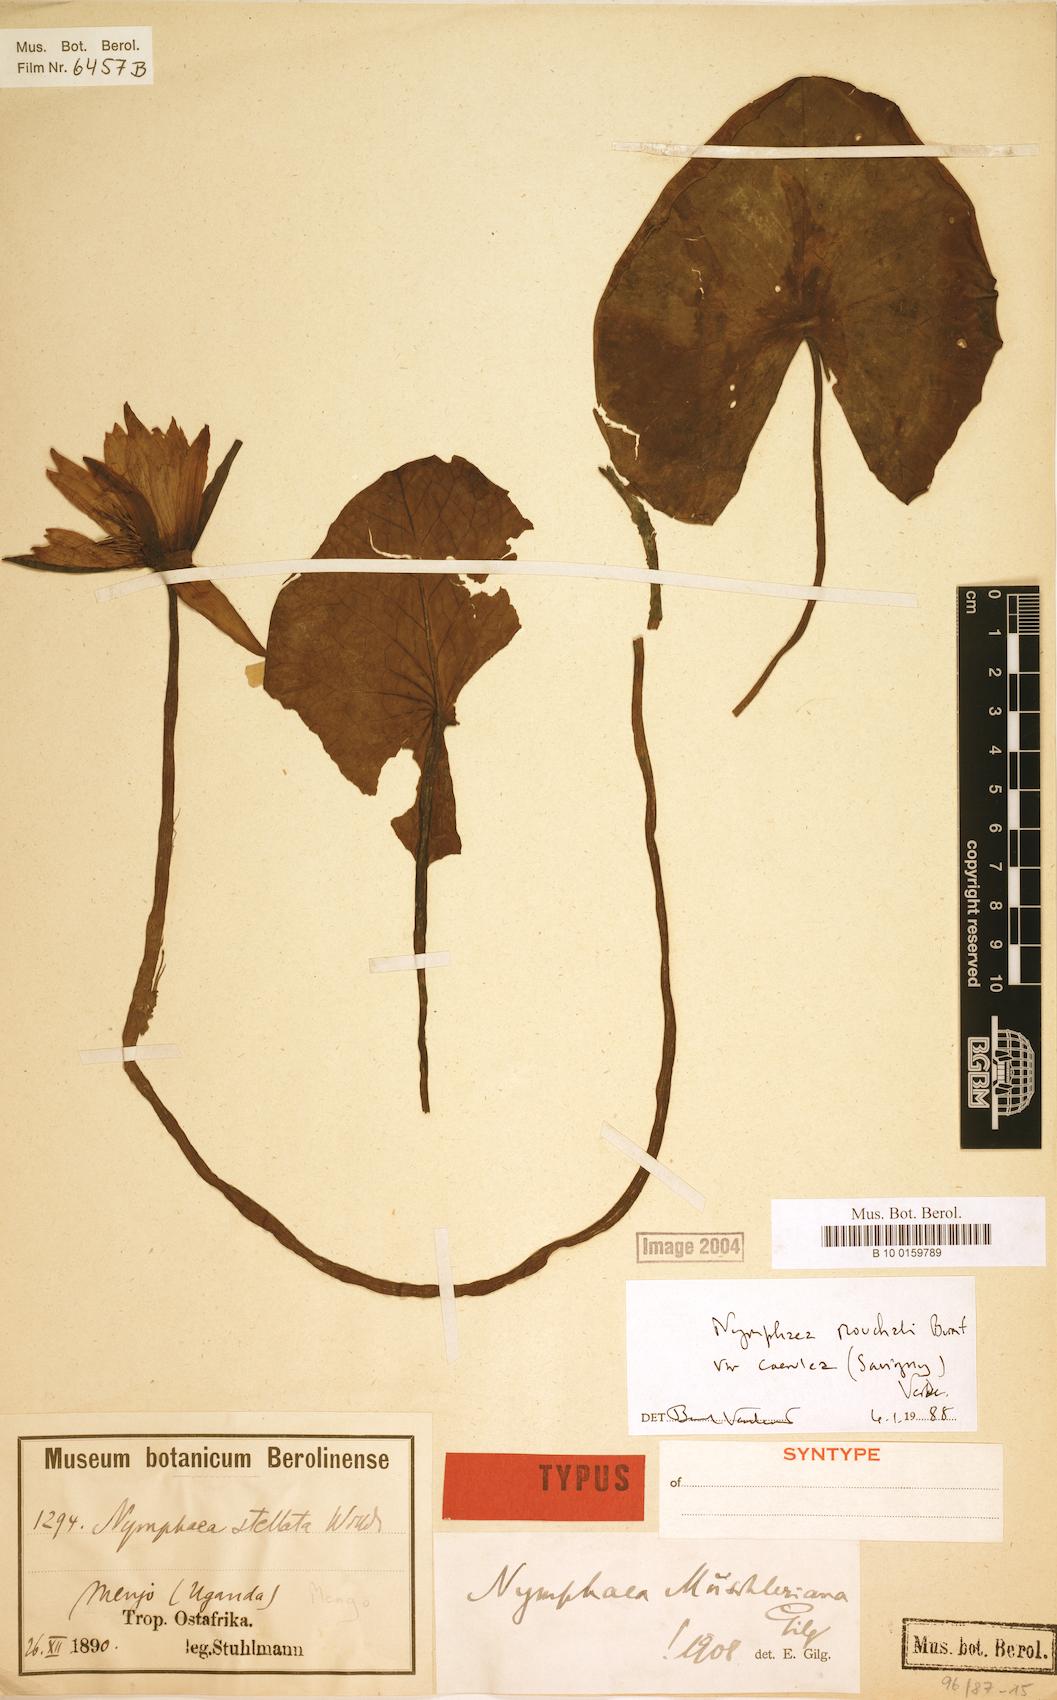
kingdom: Plantae
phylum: Tracheophyta
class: Magnoliopsida
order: Nymphaeales
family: Nymphaeaceae
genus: Nymphaea
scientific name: Nymphaea nouchali
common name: Blue lotus
